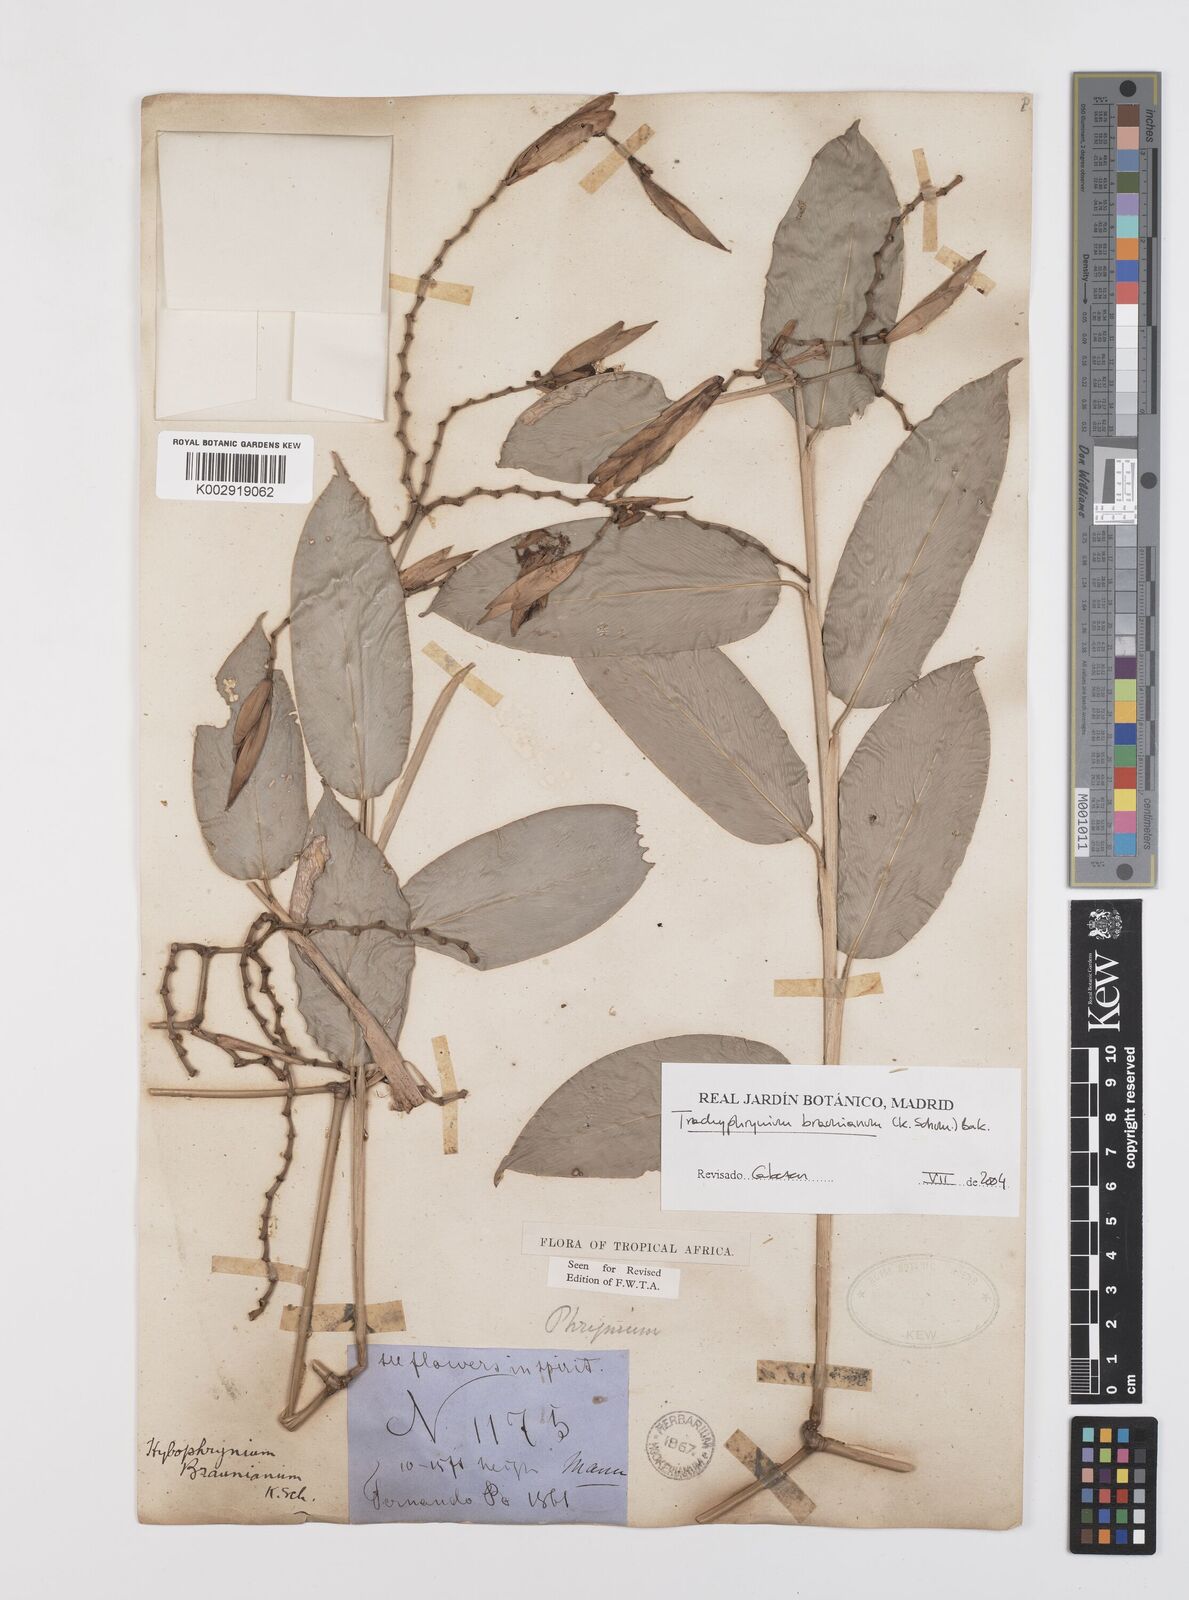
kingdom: Plantae
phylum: Tracheophyta
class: Liliopsida
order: Zingiberales
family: Marantaceae
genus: Trachyphrynium
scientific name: Trachyphrynium braunianum
